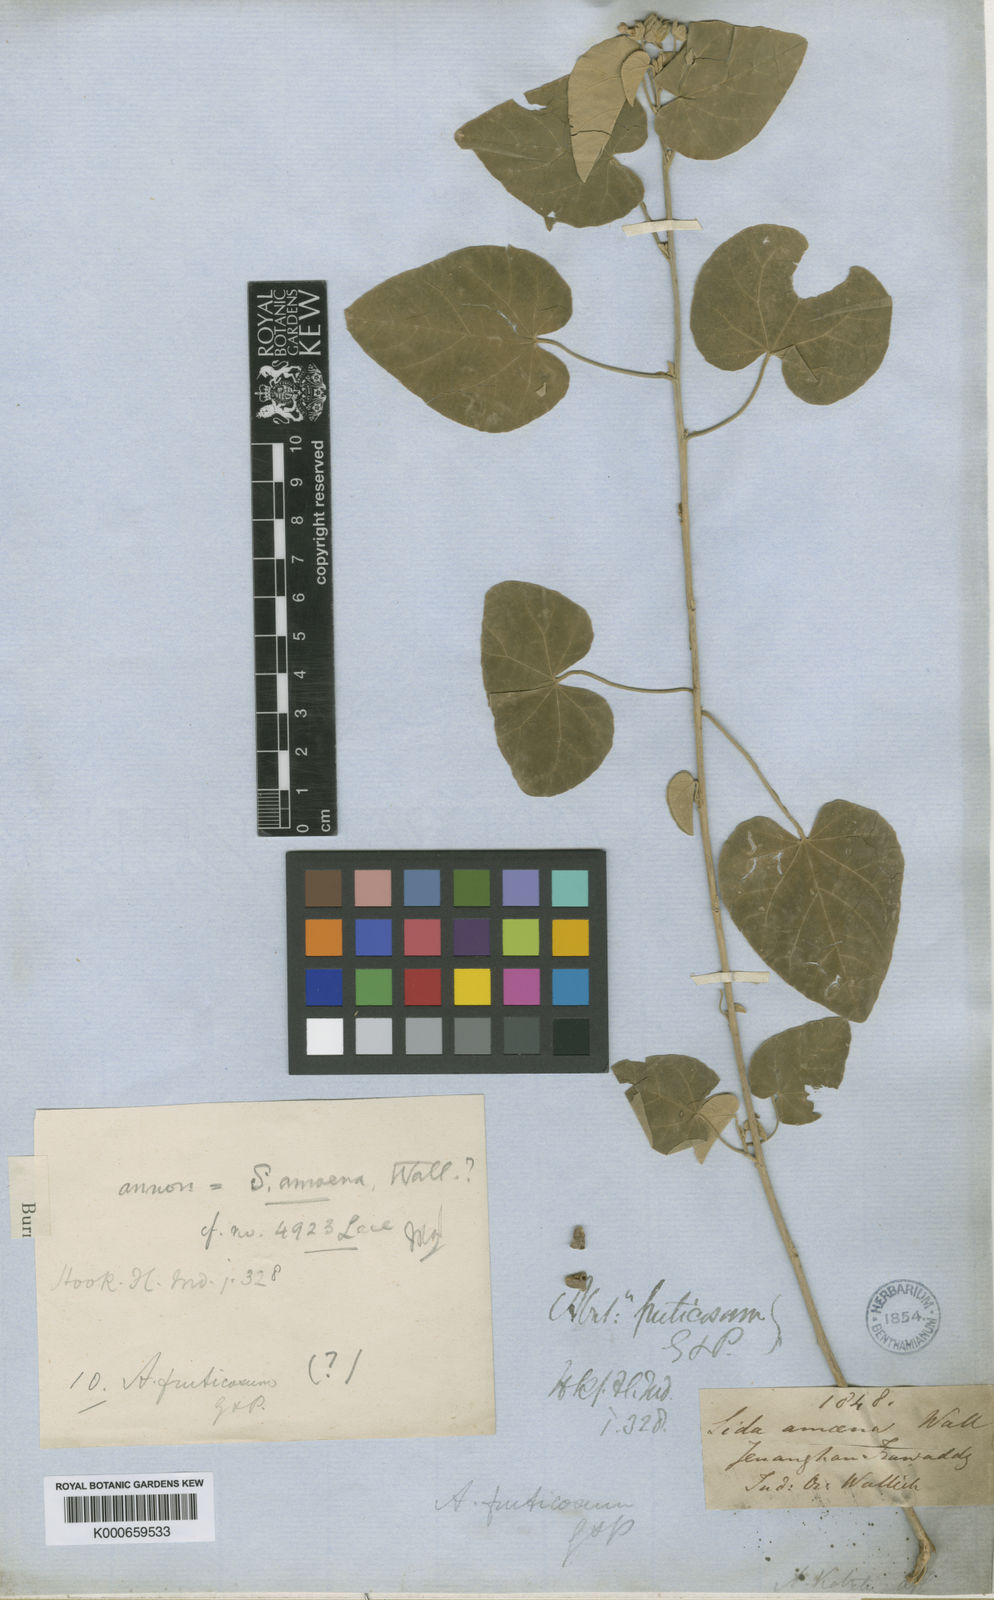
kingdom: Plantae
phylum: Tracheophyta
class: Magnoliopsida
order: Malvales
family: Malvaceae
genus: Callianthe
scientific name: Callianthe amoena
